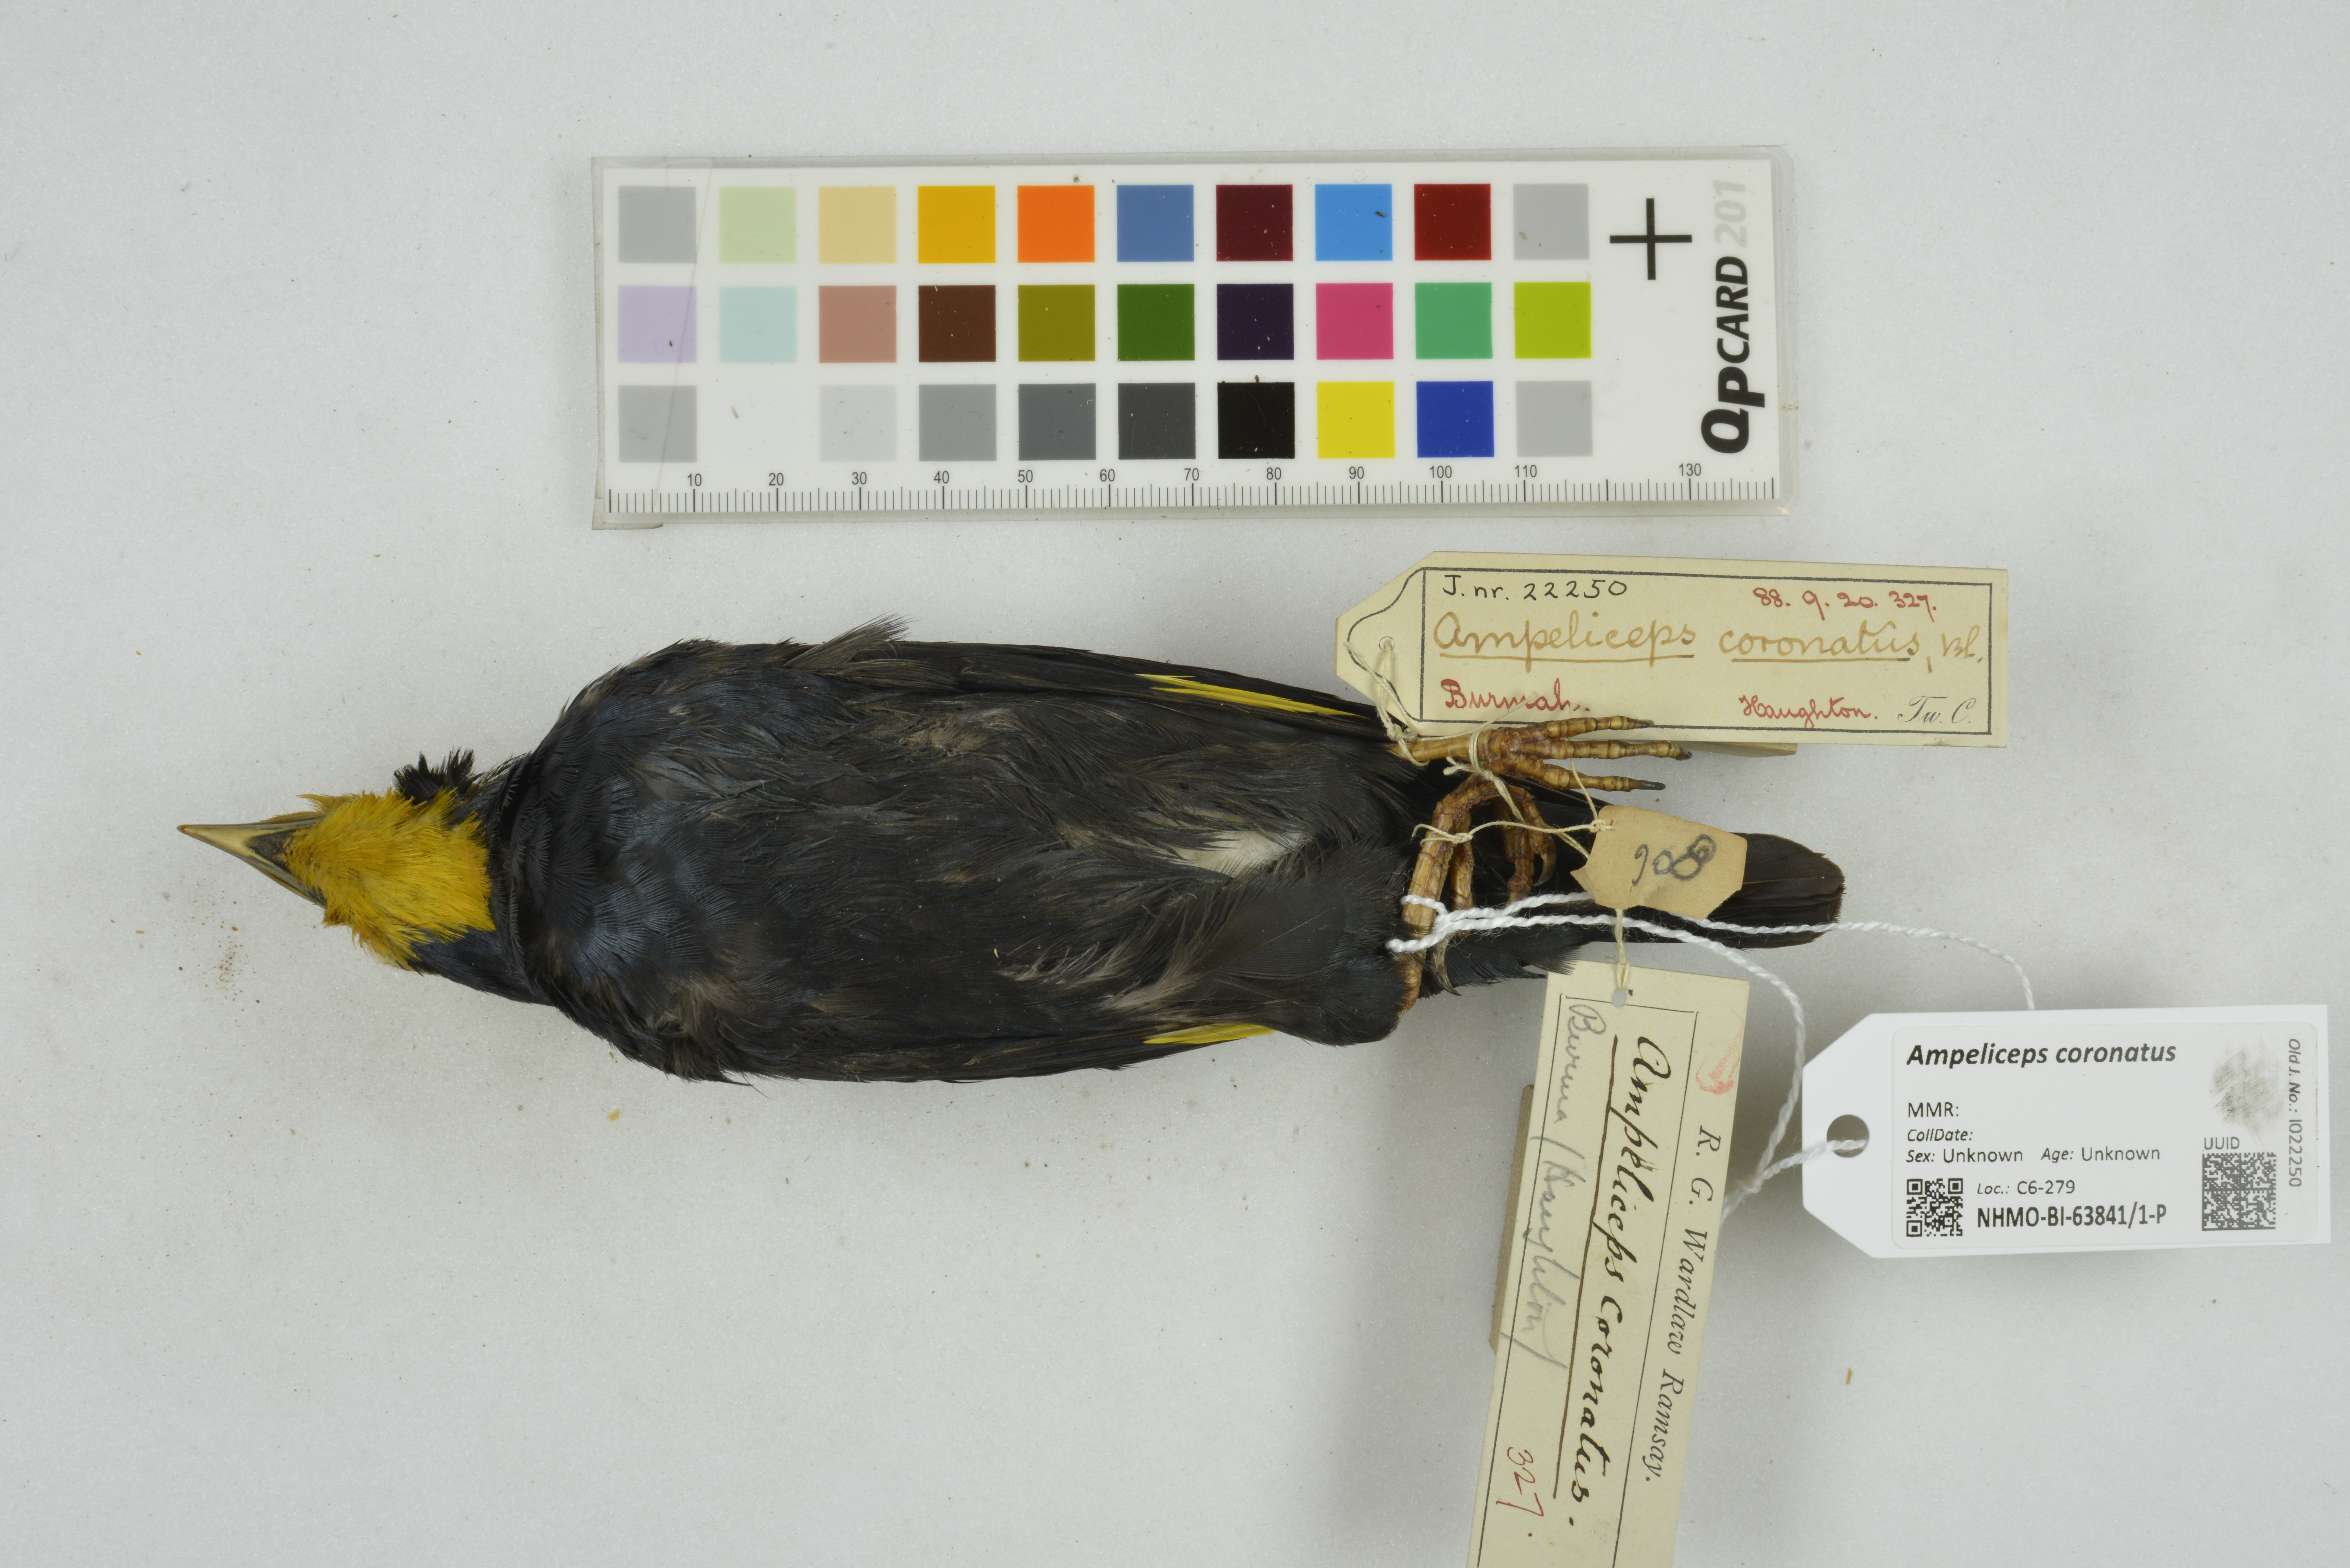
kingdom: Animalia
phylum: Chordata
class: Aves
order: Passeriformes
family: Sturnidae
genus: Ampeliceps
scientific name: Ampeliceps coronatus
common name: Golden-crested myna
